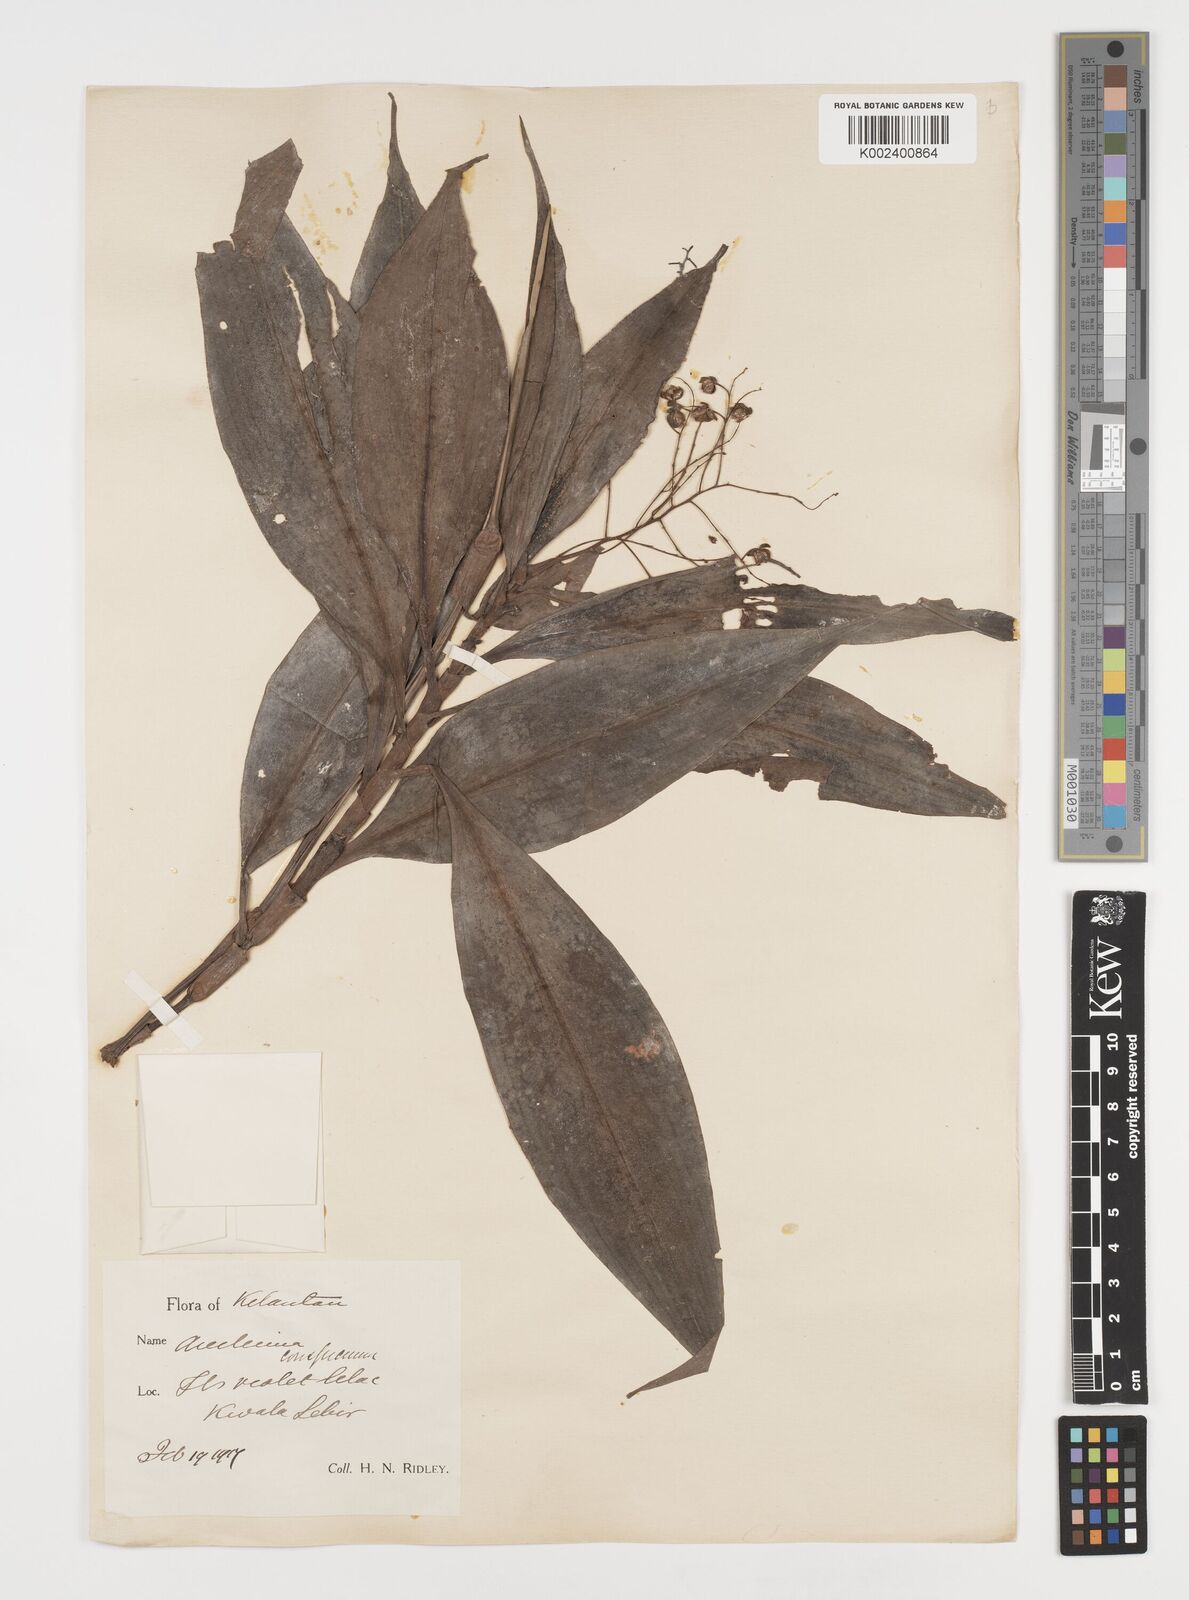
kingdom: Plantae
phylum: Tracheophyta
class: Liliopsida
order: Commelinales
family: Commelinaceae
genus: Dictyospermum
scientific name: Dictyospermum conspicuum
